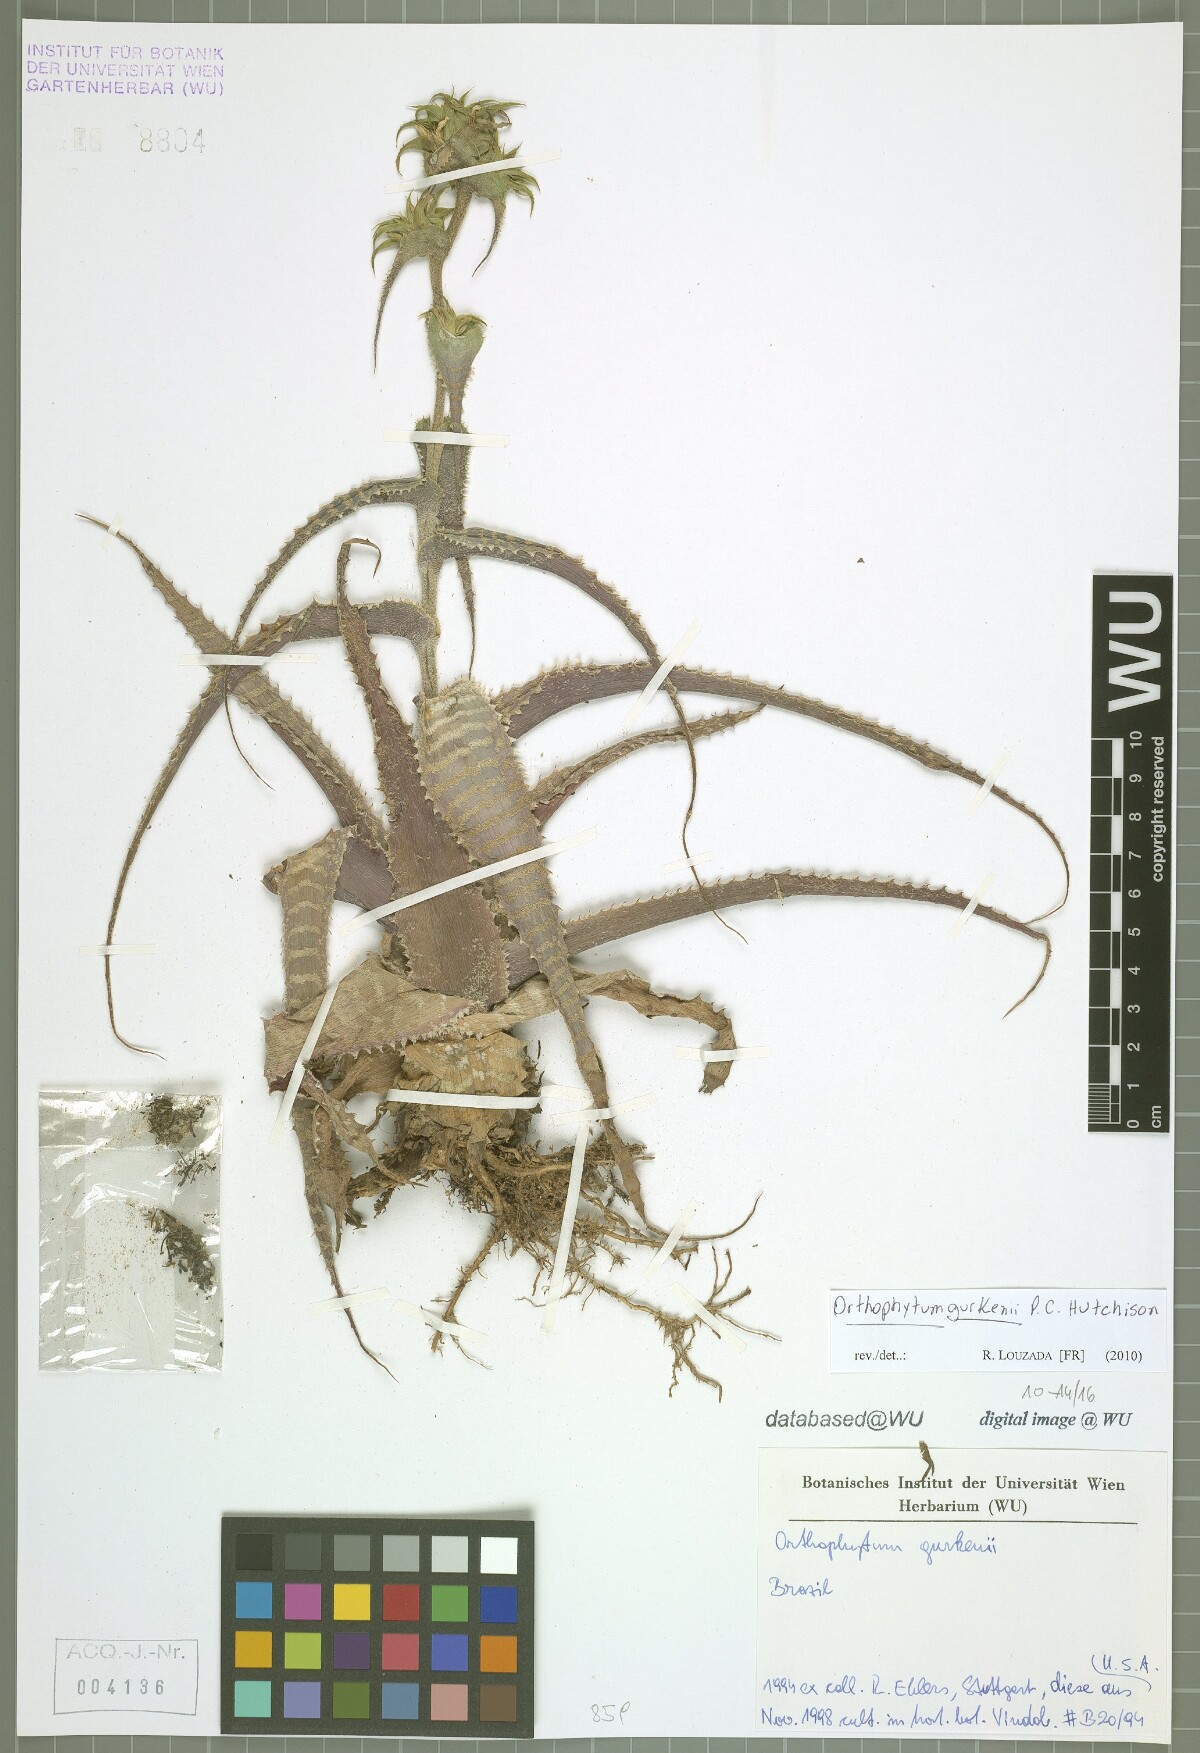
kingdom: Plantae
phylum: Tracheophyta
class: Liliopsida
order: Poales
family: Bromeliaceae
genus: Orthophytum
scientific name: Orthophytum gurkenii
